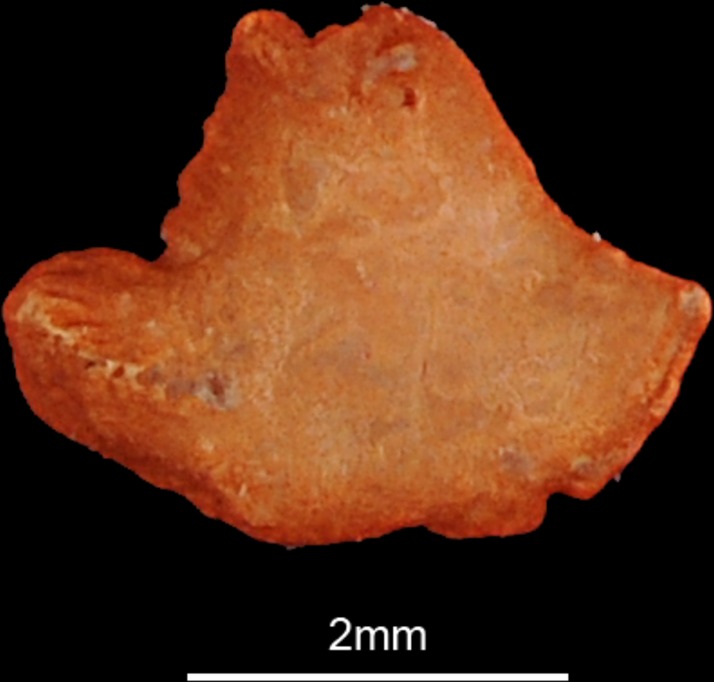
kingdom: Animalia
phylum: Chordata
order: Perciformes
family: Priacanthidae
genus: Cookeolus
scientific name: Cookeolus japonicus
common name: Bulleye
